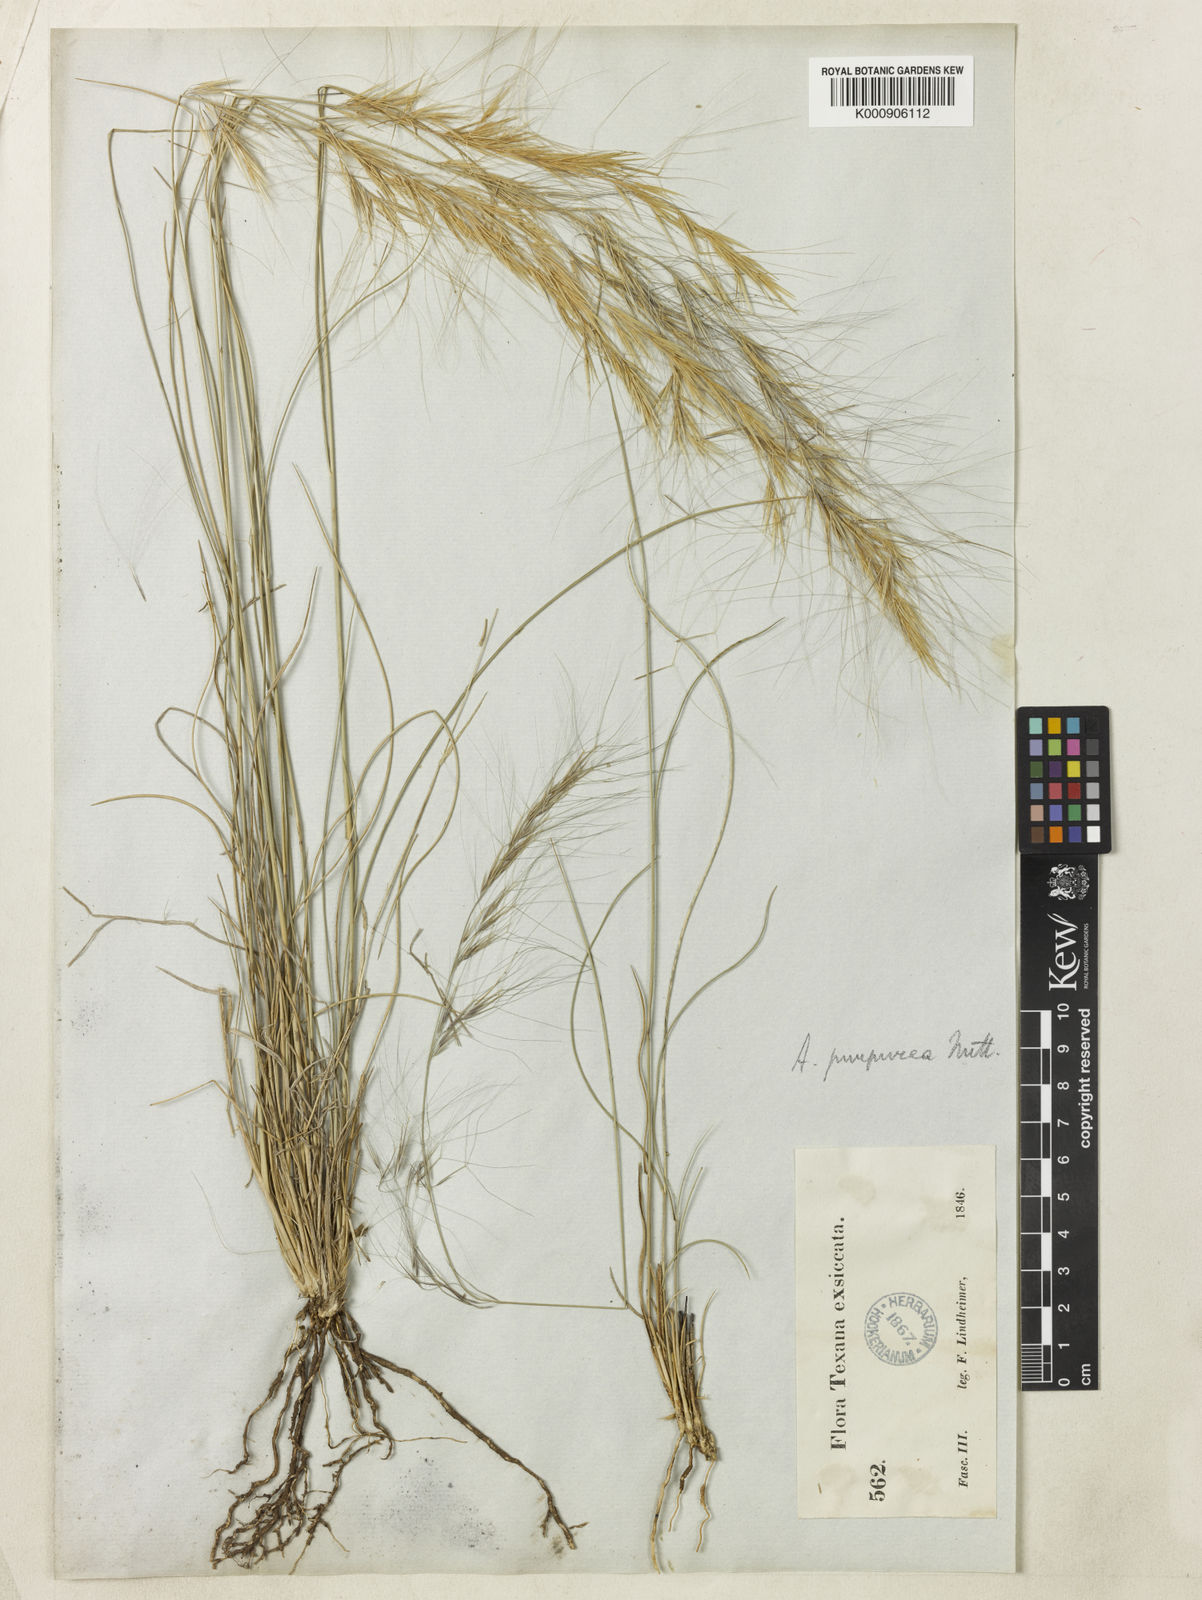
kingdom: Plantae
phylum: Tracheophyta
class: Liliopsida
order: Poales
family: Poaceae
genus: Aristida
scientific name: Aristida purpurea
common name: Purple threeawn
